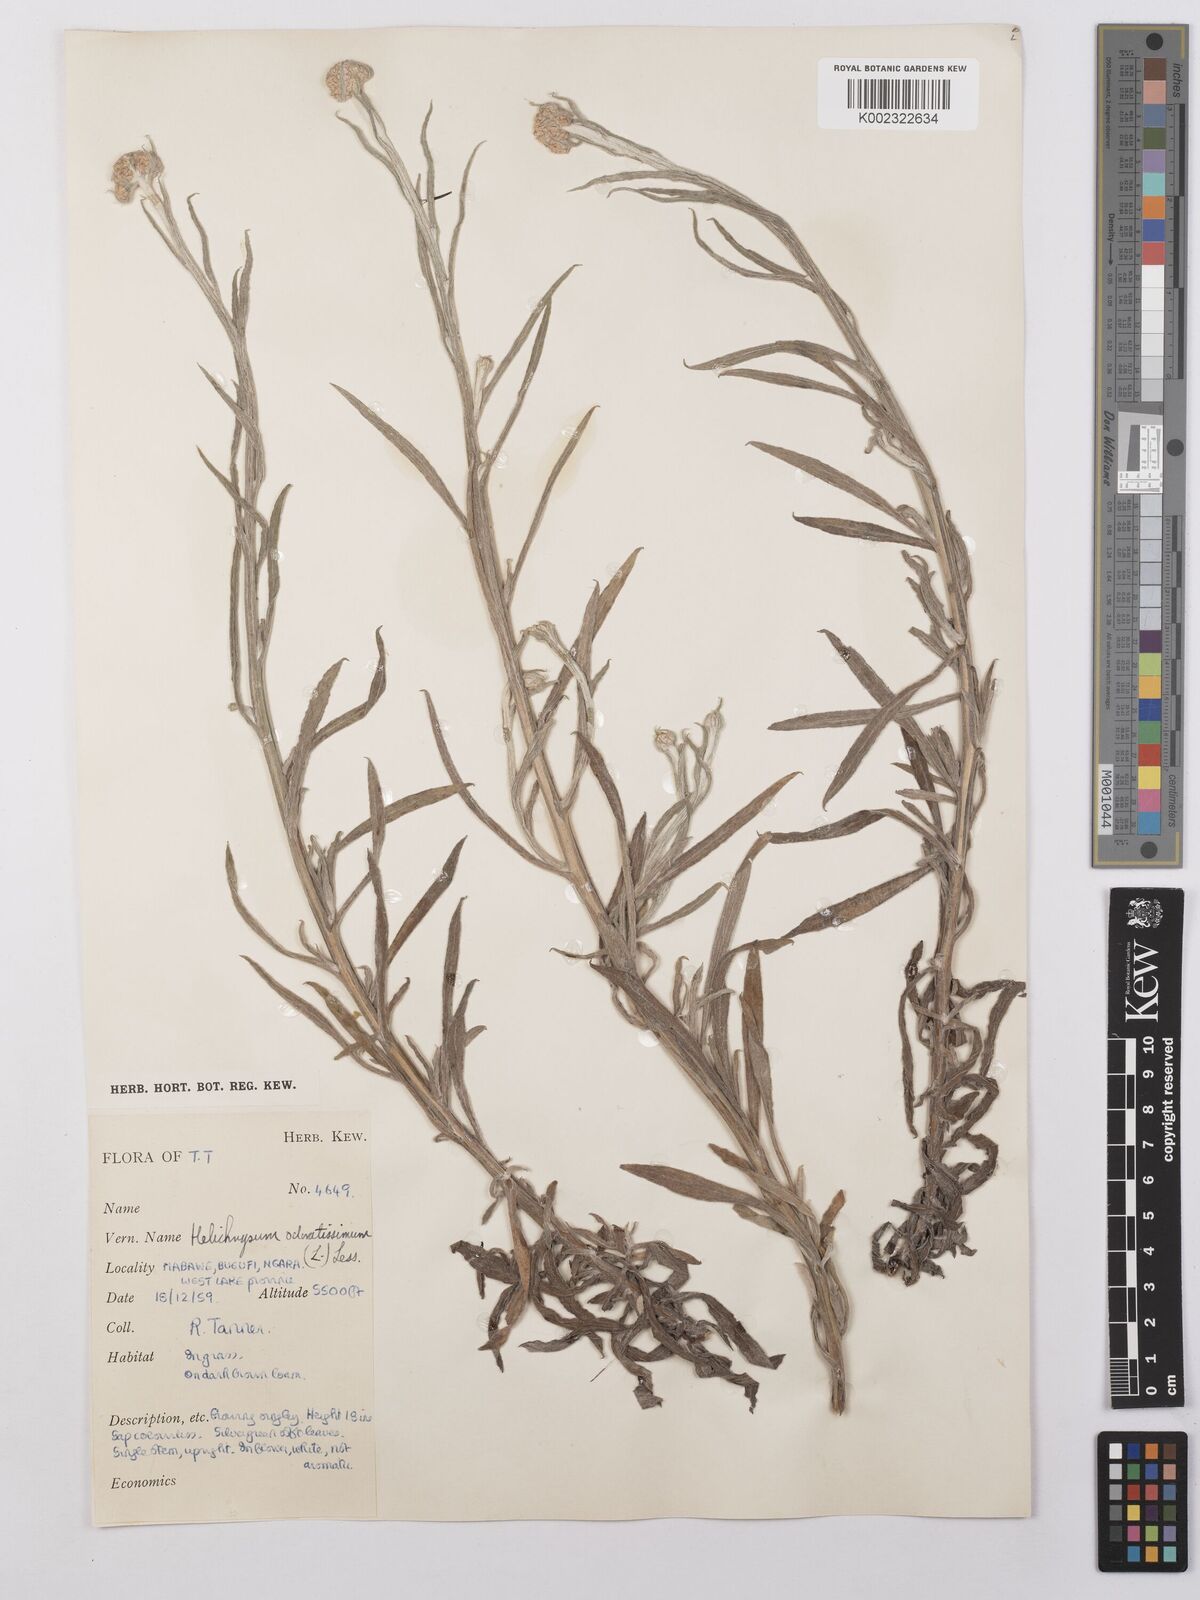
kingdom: Plantae
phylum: Tracheophyta
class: Magnoliopsida
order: Asterales
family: Asteraceae
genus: Helichrysum
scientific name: Helichrysum stenopterum
